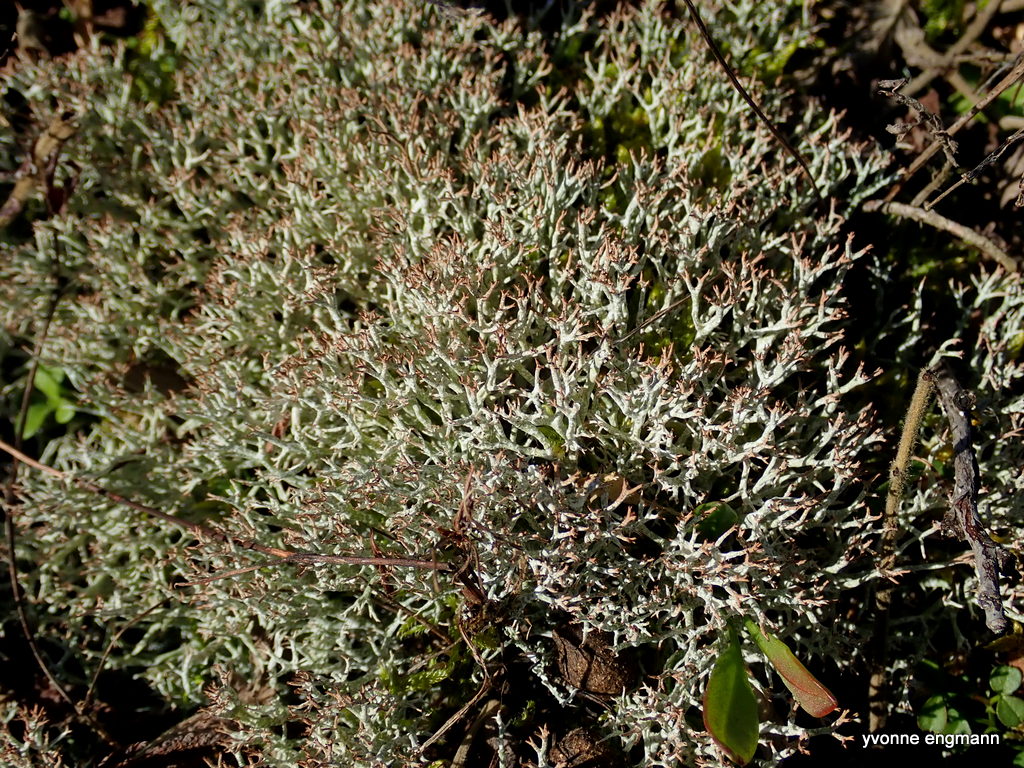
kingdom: Fungi
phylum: Ascomycota
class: Lecanoromycetes
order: Lecanorales
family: Cladoniaceae
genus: Cladonia
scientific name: Cladonia rangiformis
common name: spættet bægerlav
